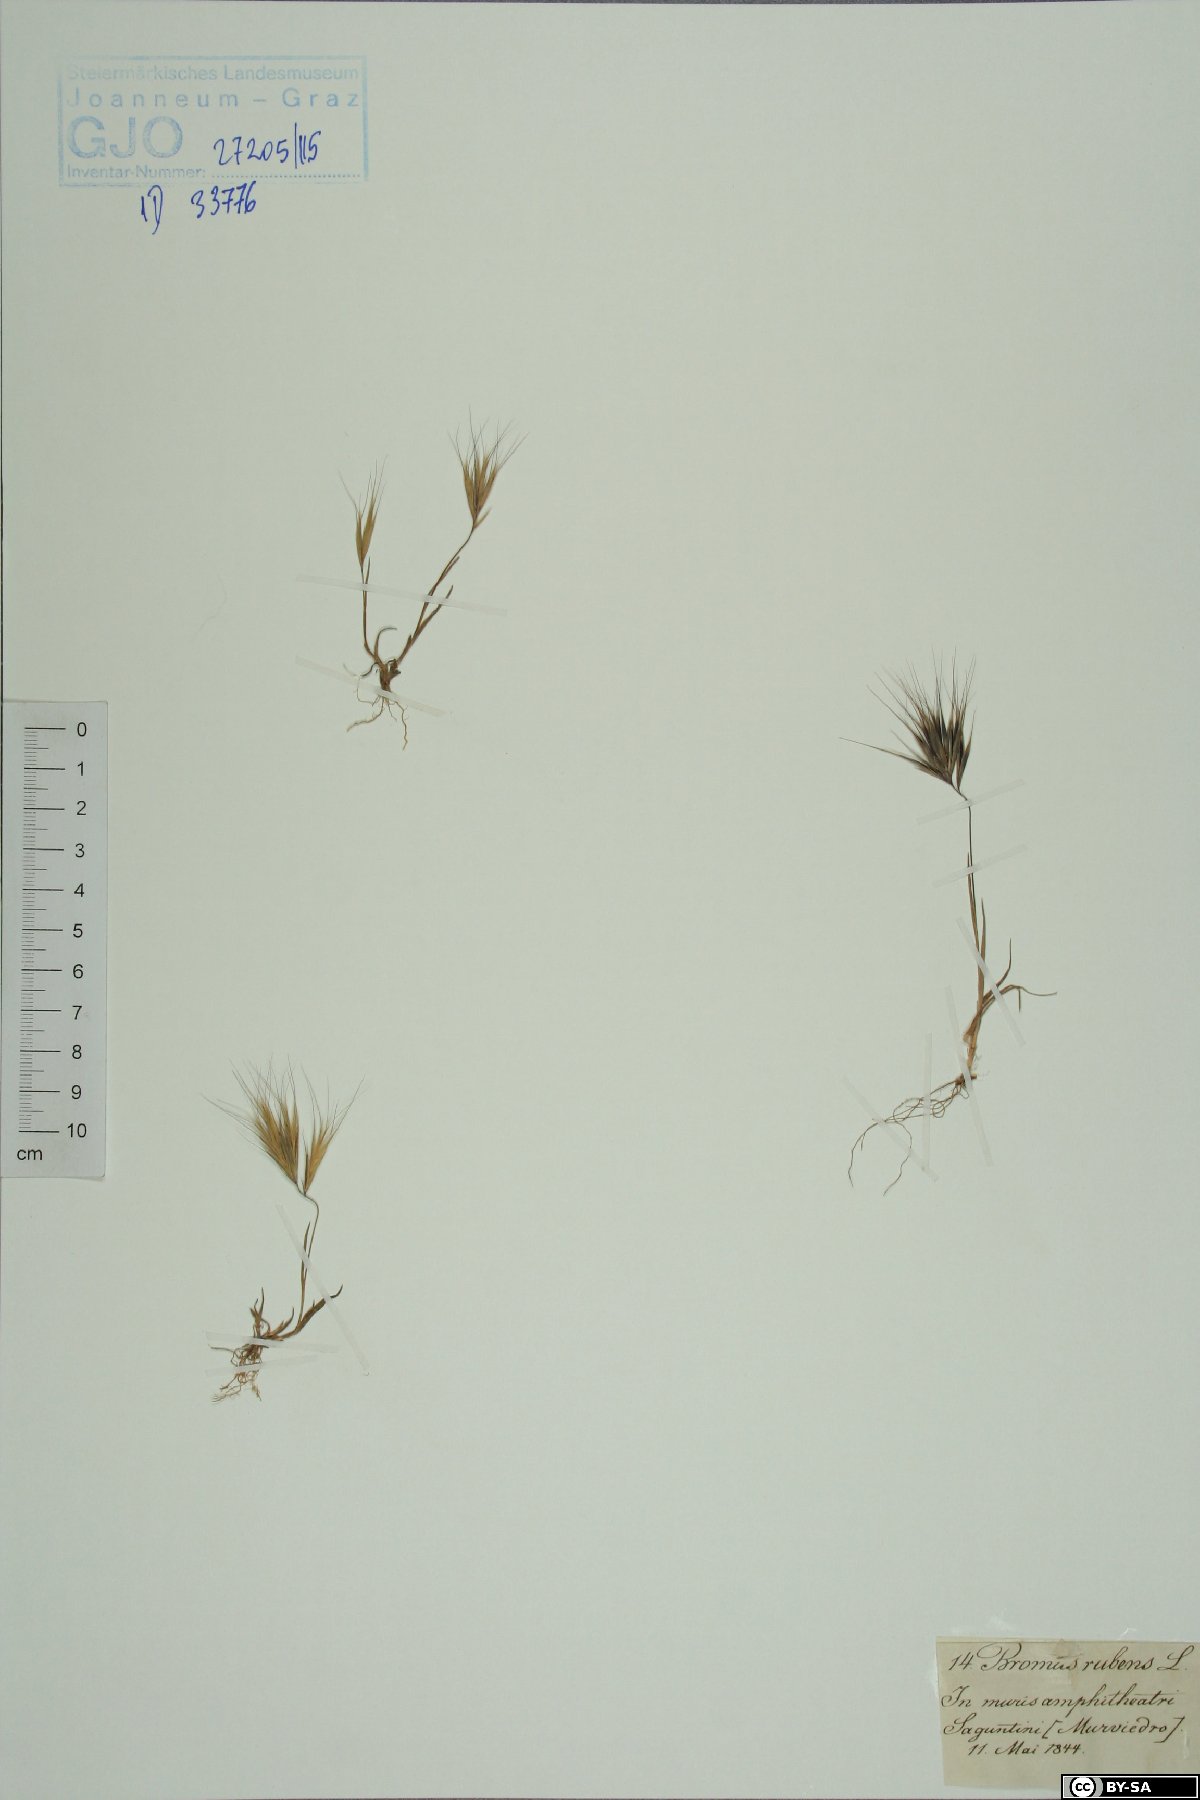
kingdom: Plantae
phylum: Tracheophyta
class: Liliopsida
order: Poales
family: Poaceae
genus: Bromus
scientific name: Bromus rubens
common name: Red brome
